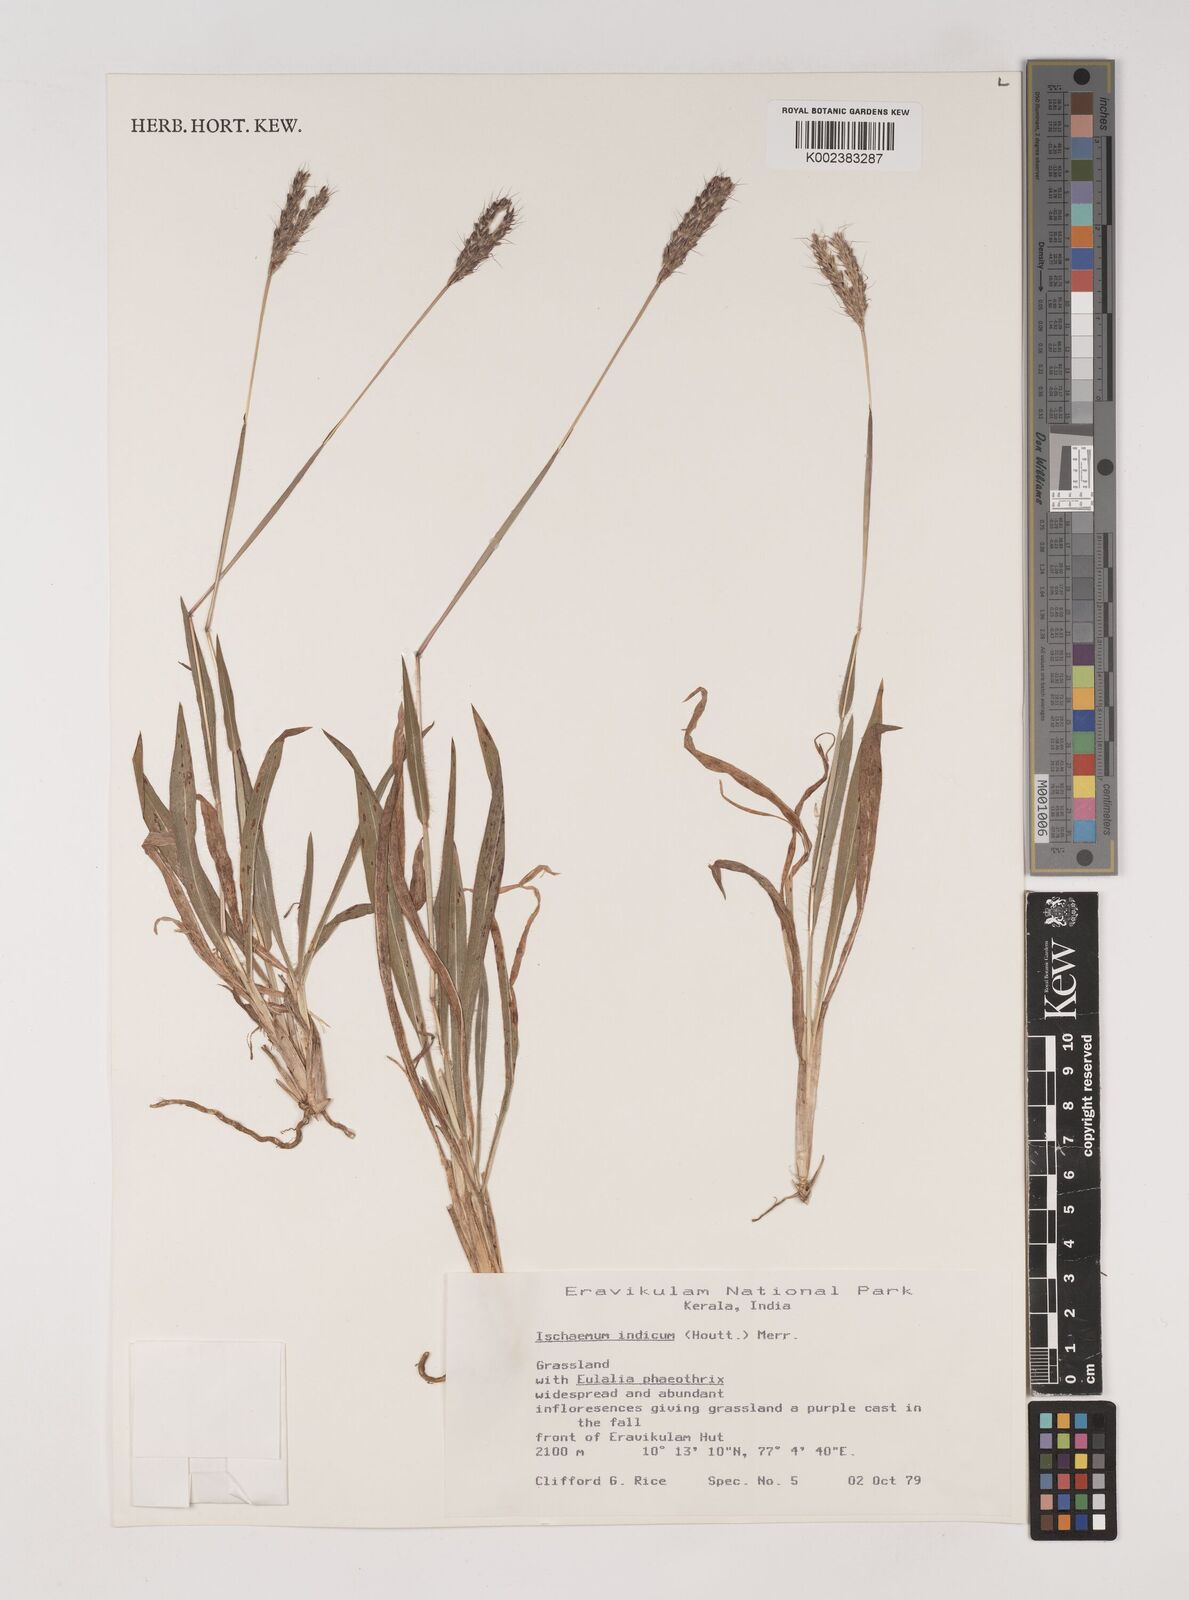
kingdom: Plantae
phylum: Tracheophyta
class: Liliopsida
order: Poales
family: Poaceae
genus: Polytrias
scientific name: Polytrias indica
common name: Indian murainagrass
